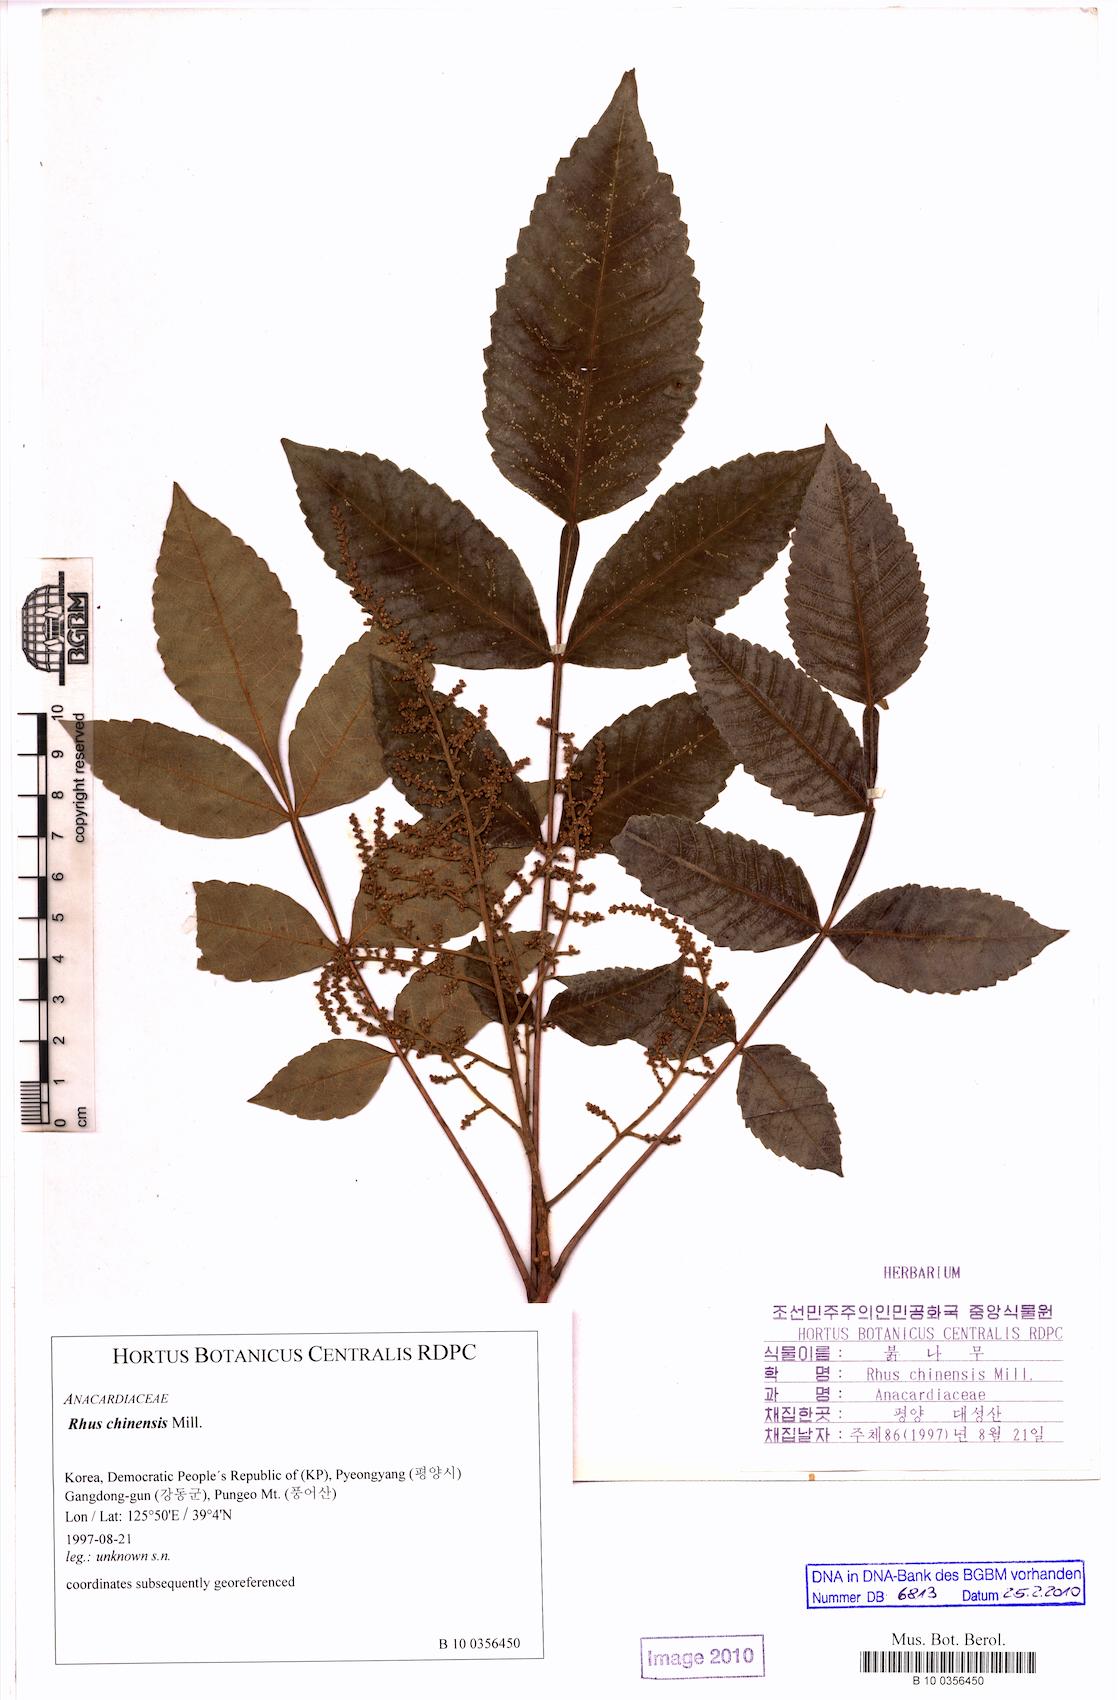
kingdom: Plantae
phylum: Tracheophyta
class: Magnoliopsida
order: Sapindales
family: Anacardiaceae
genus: Rhus
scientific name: Rhus chinensis
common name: Chinese gall
